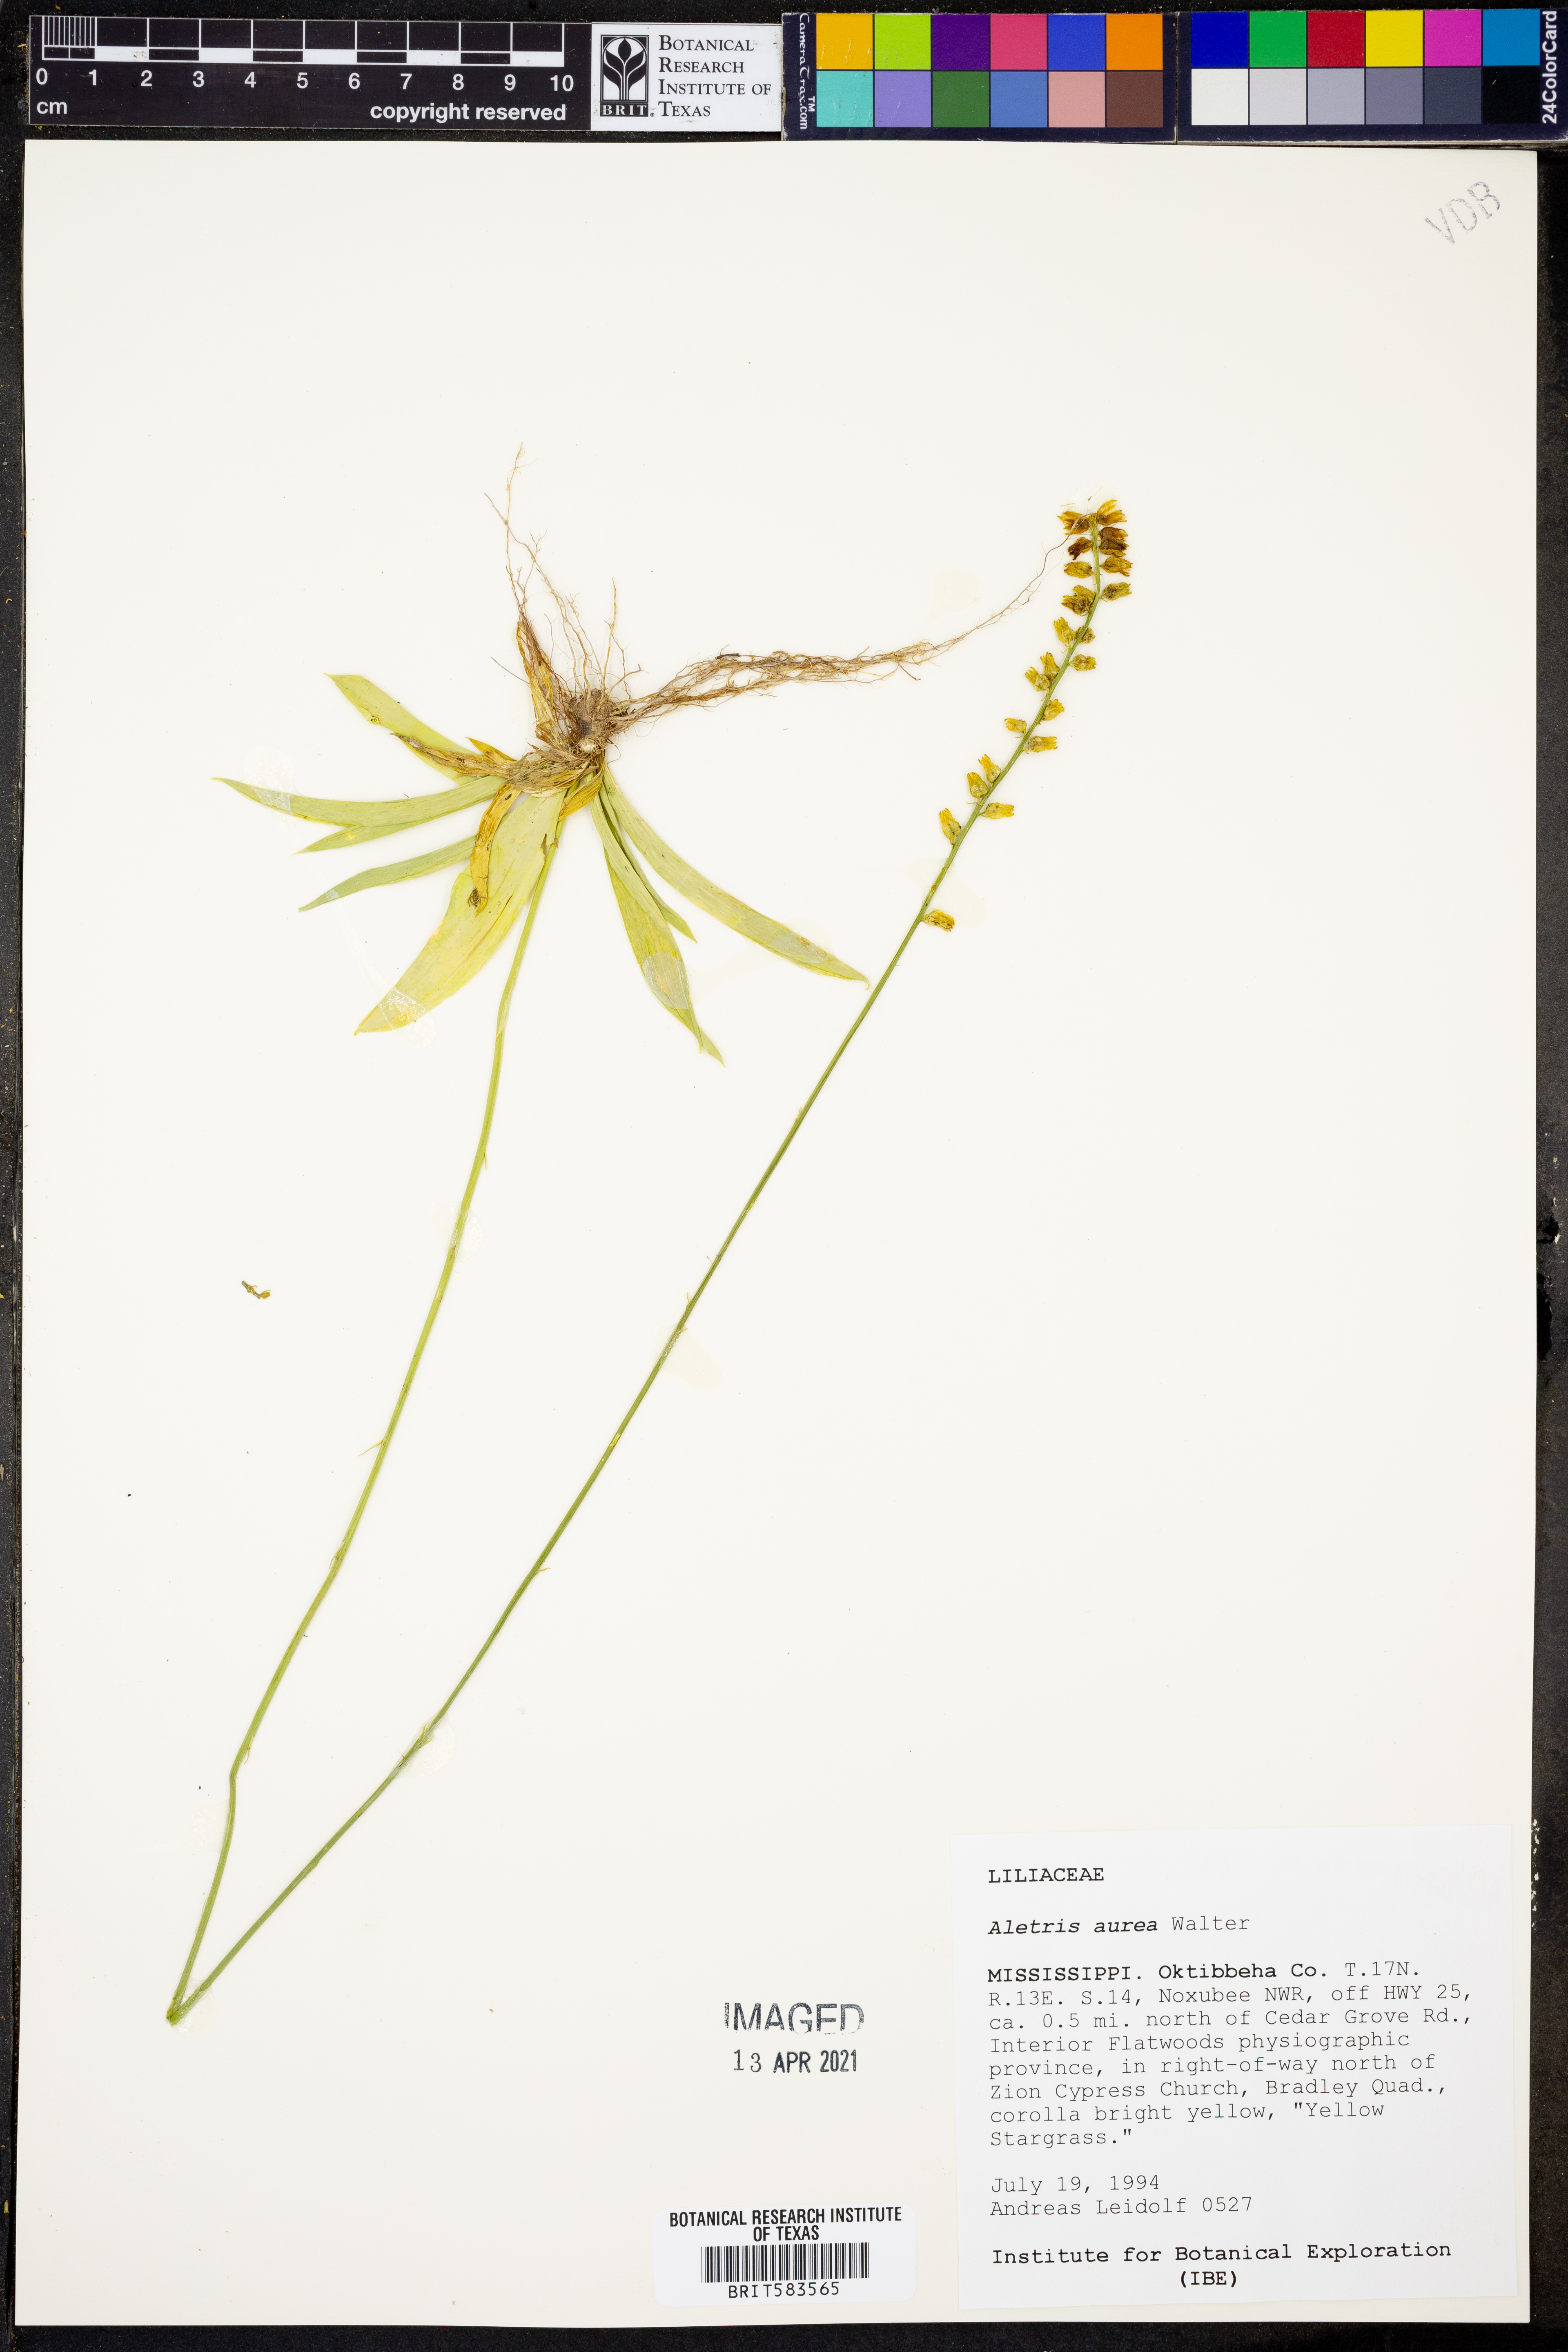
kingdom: Plantae
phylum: Tracheophyta
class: Liliopsida
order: Dioscoreales
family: Nartheciaceae
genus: Aletris
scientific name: Aletris aurea
